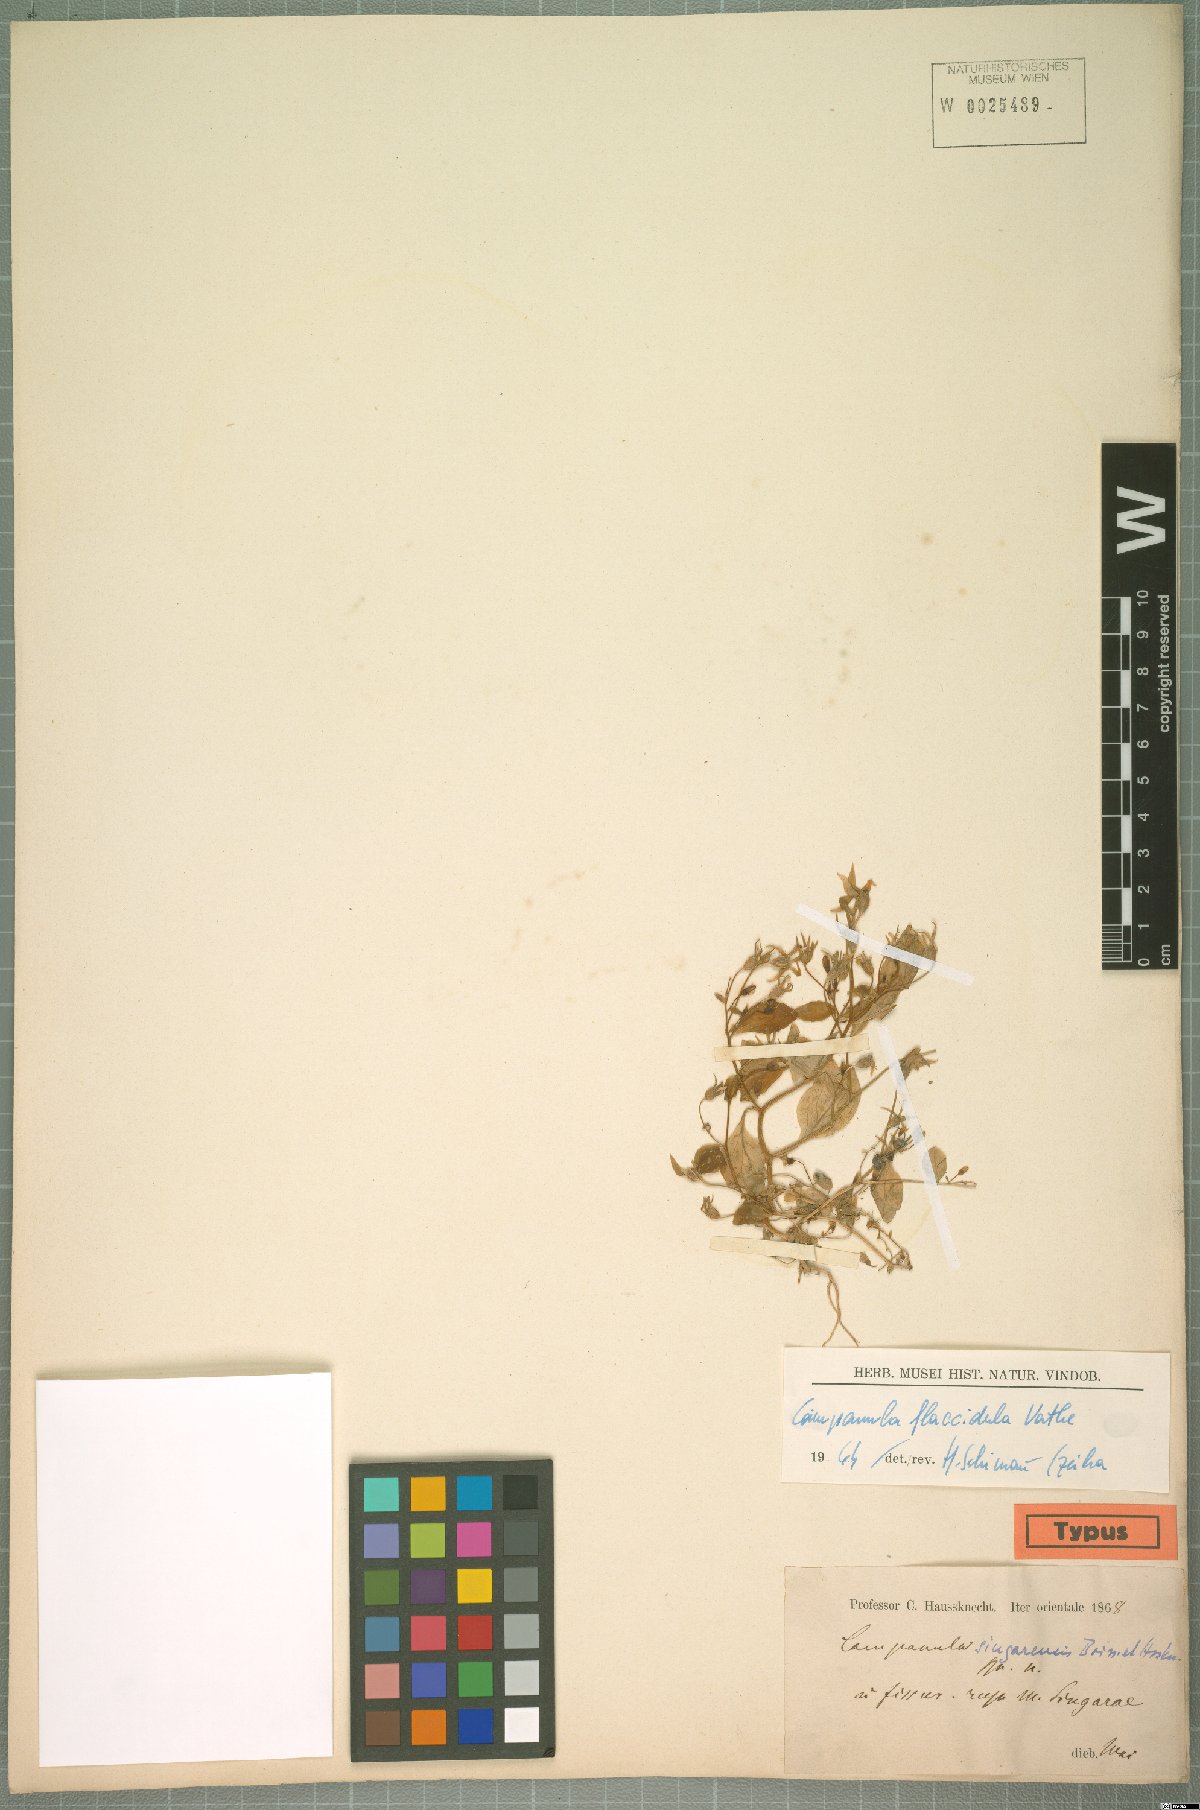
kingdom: Plantae
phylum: Tracheophyta
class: Magnoliopsida
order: Asterales
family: Campanulaceae
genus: Campanula
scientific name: Campanula flaccidula
